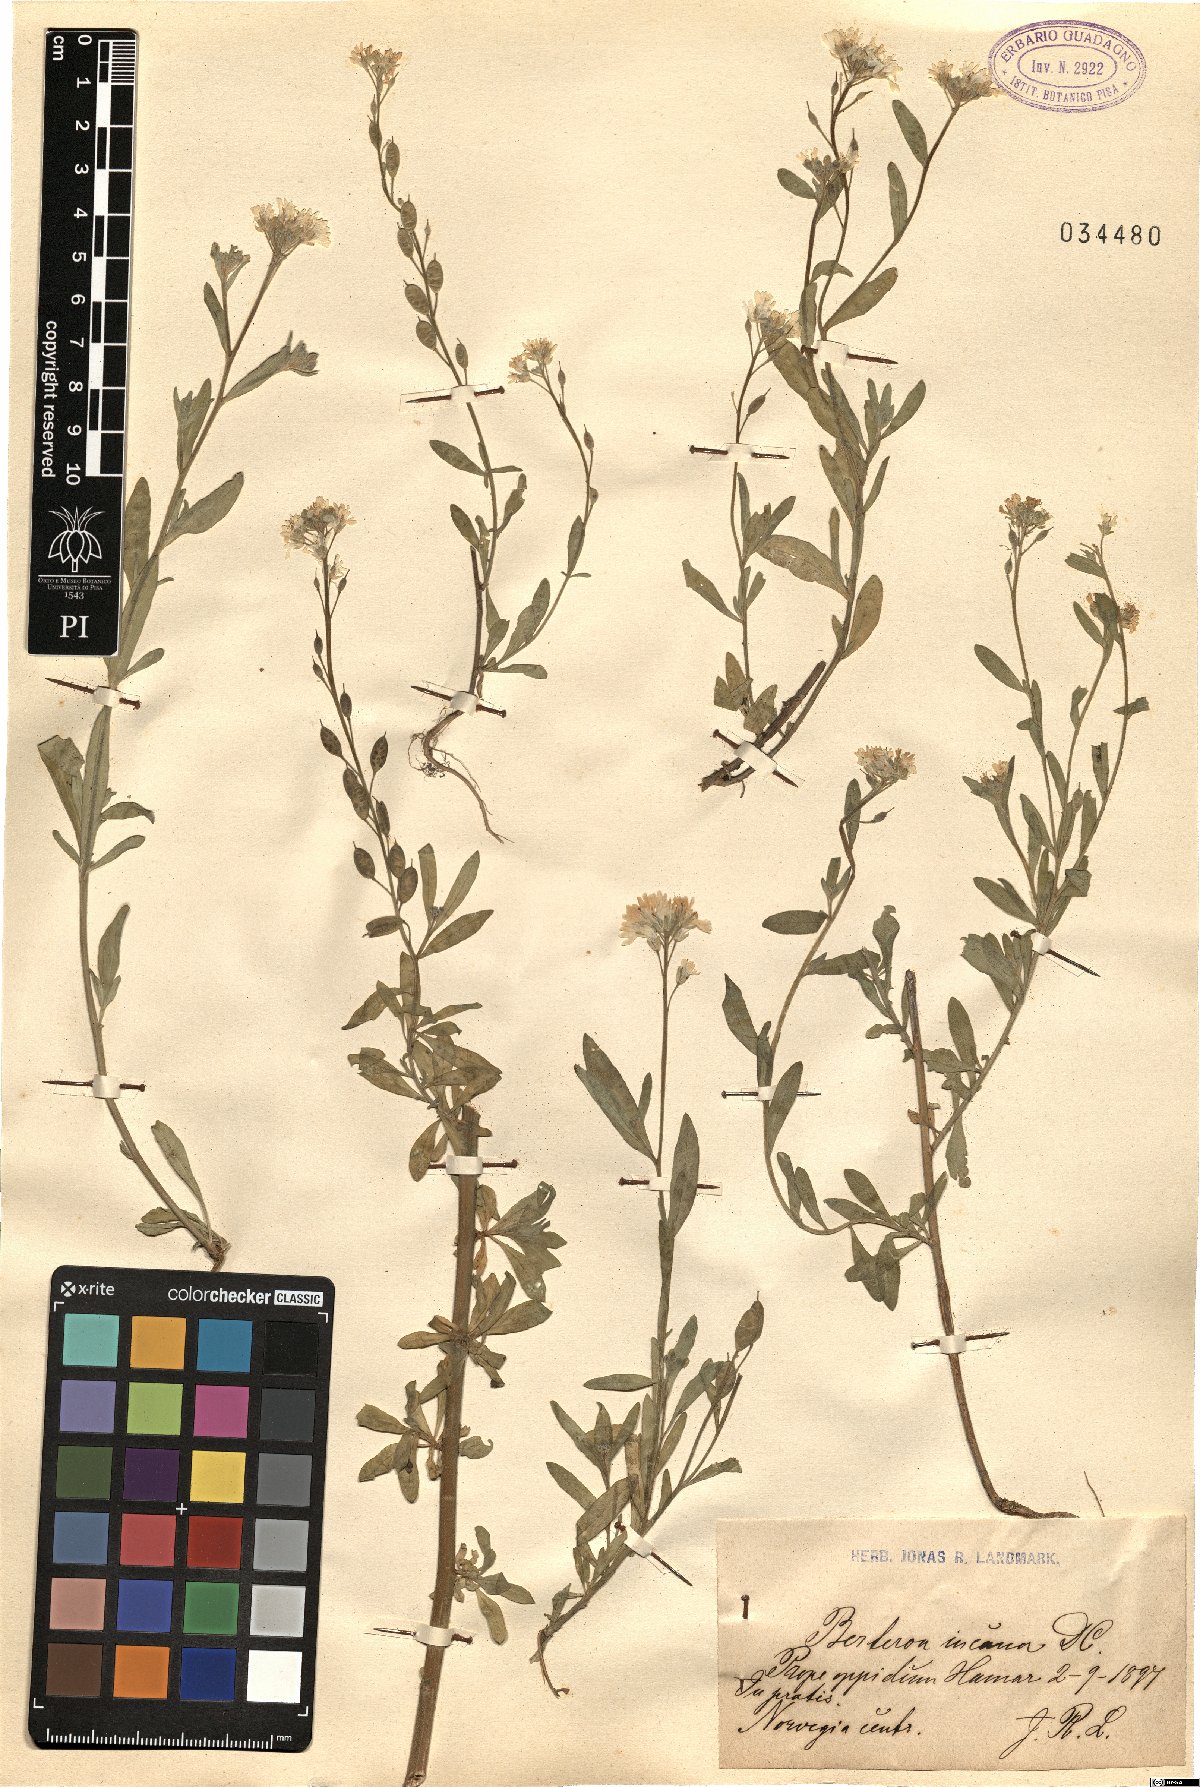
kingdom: Plantae
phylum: Tracheophyta
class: Magnoliopsida
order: Brassicales
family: Brassicaceae
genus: Berteroa
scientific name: Berteroa incana
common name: Hoary alison
